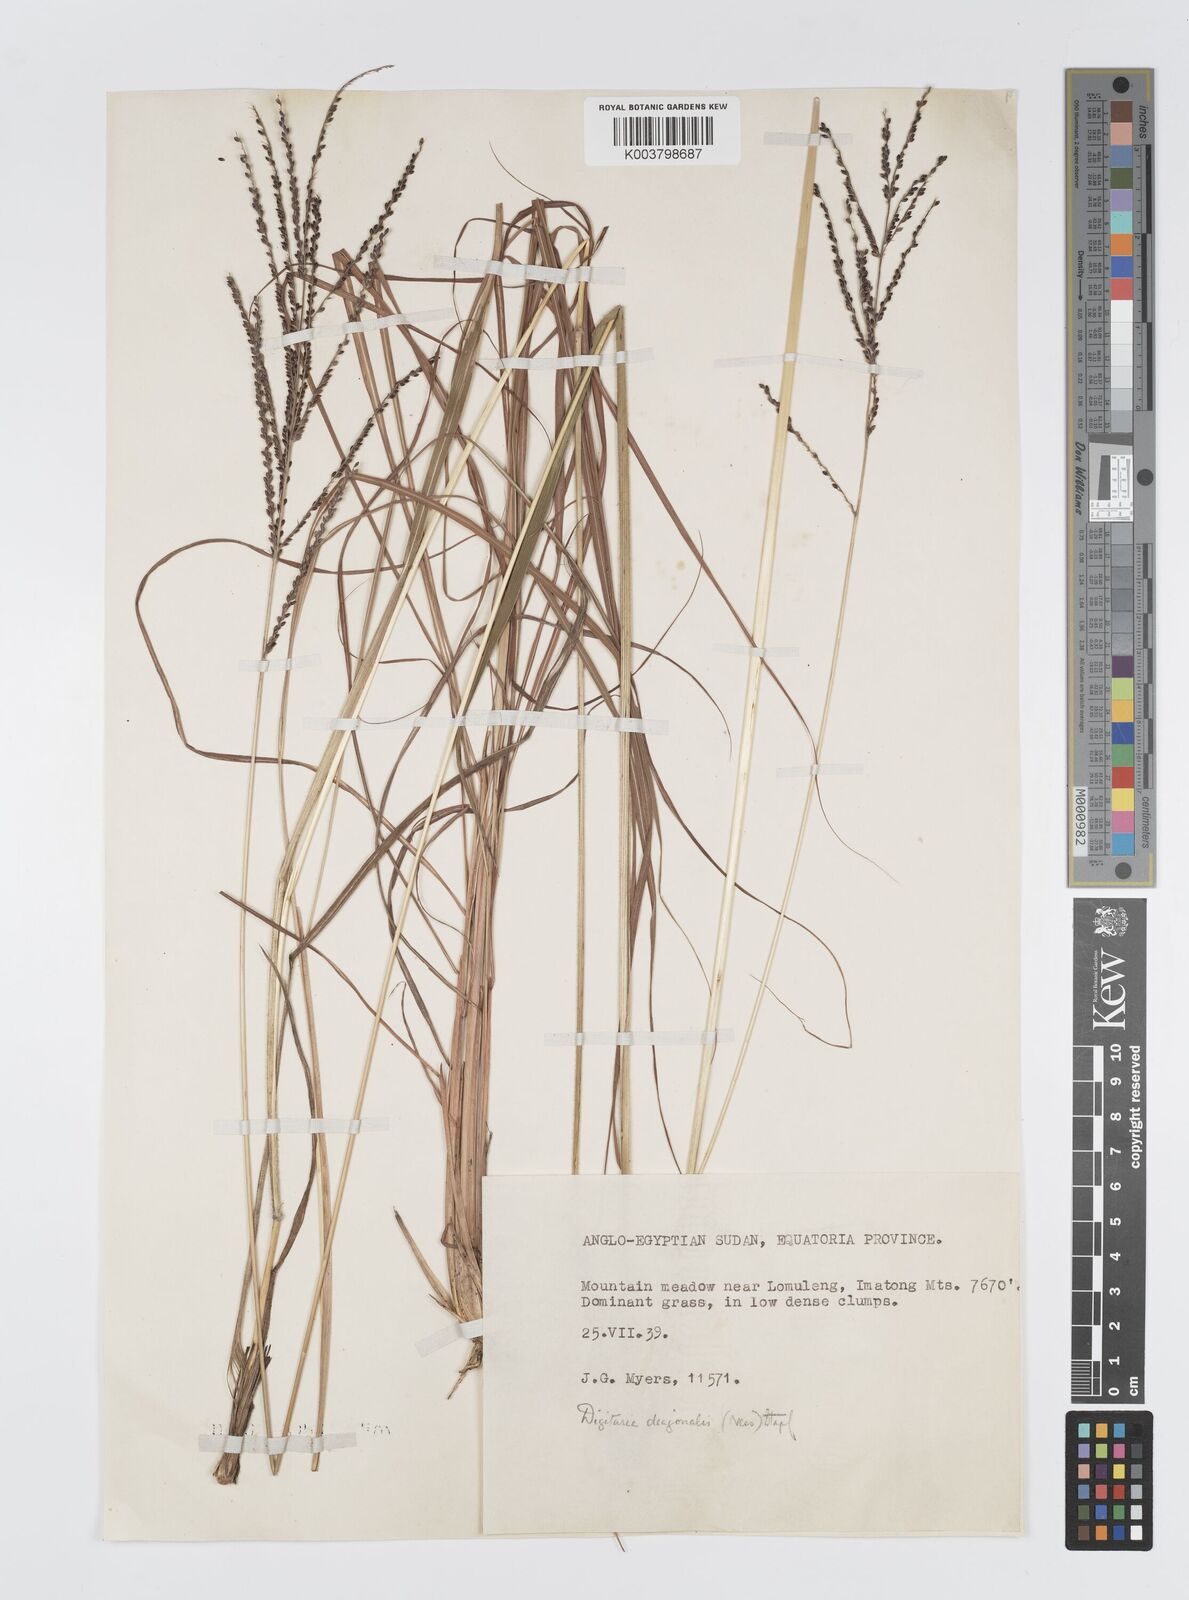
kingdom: Plantae
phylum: Tracheophyta
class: Liliopsida
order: Poales
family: Poaceae
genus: Digitaria
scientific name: Digitaria diagonalis
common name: Brown-seed finger grass
